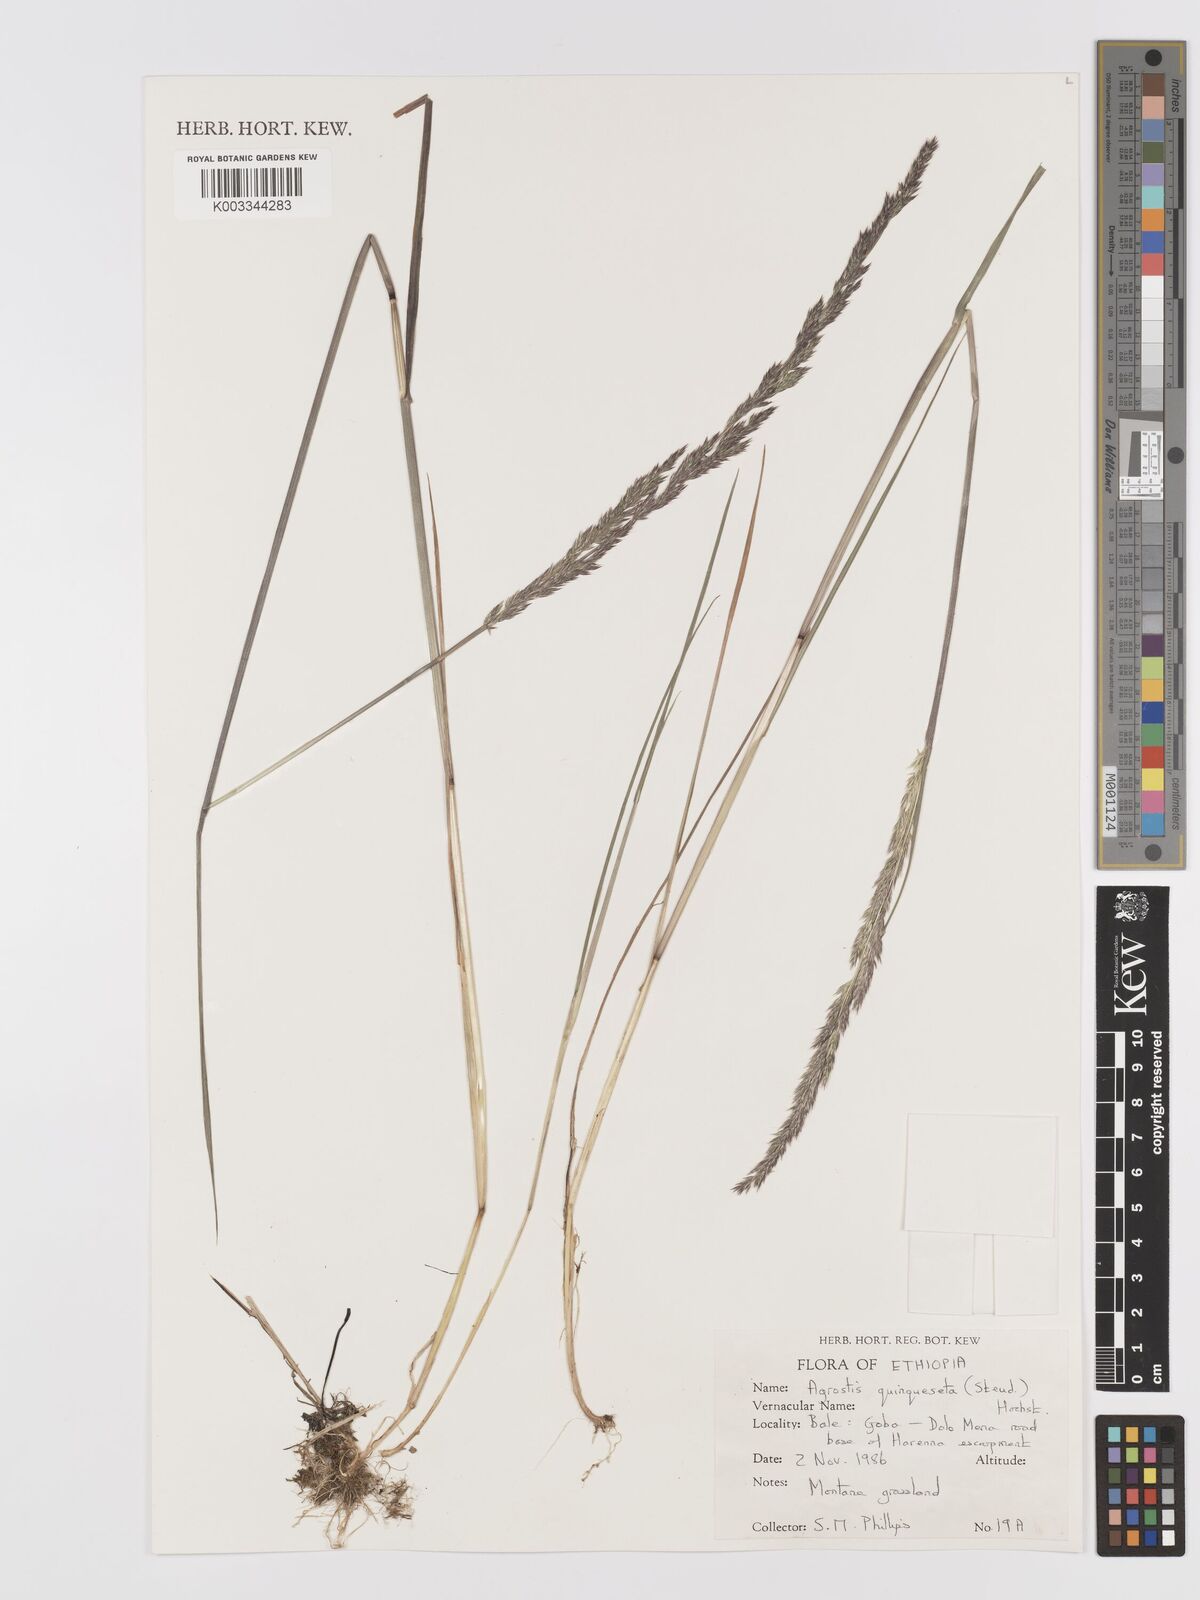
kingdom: Plantae
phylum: Tracheophyta
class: Liliopsida
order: Poales
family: Poaceae
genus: Agrostis
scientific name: Agrostis quinqueseta
